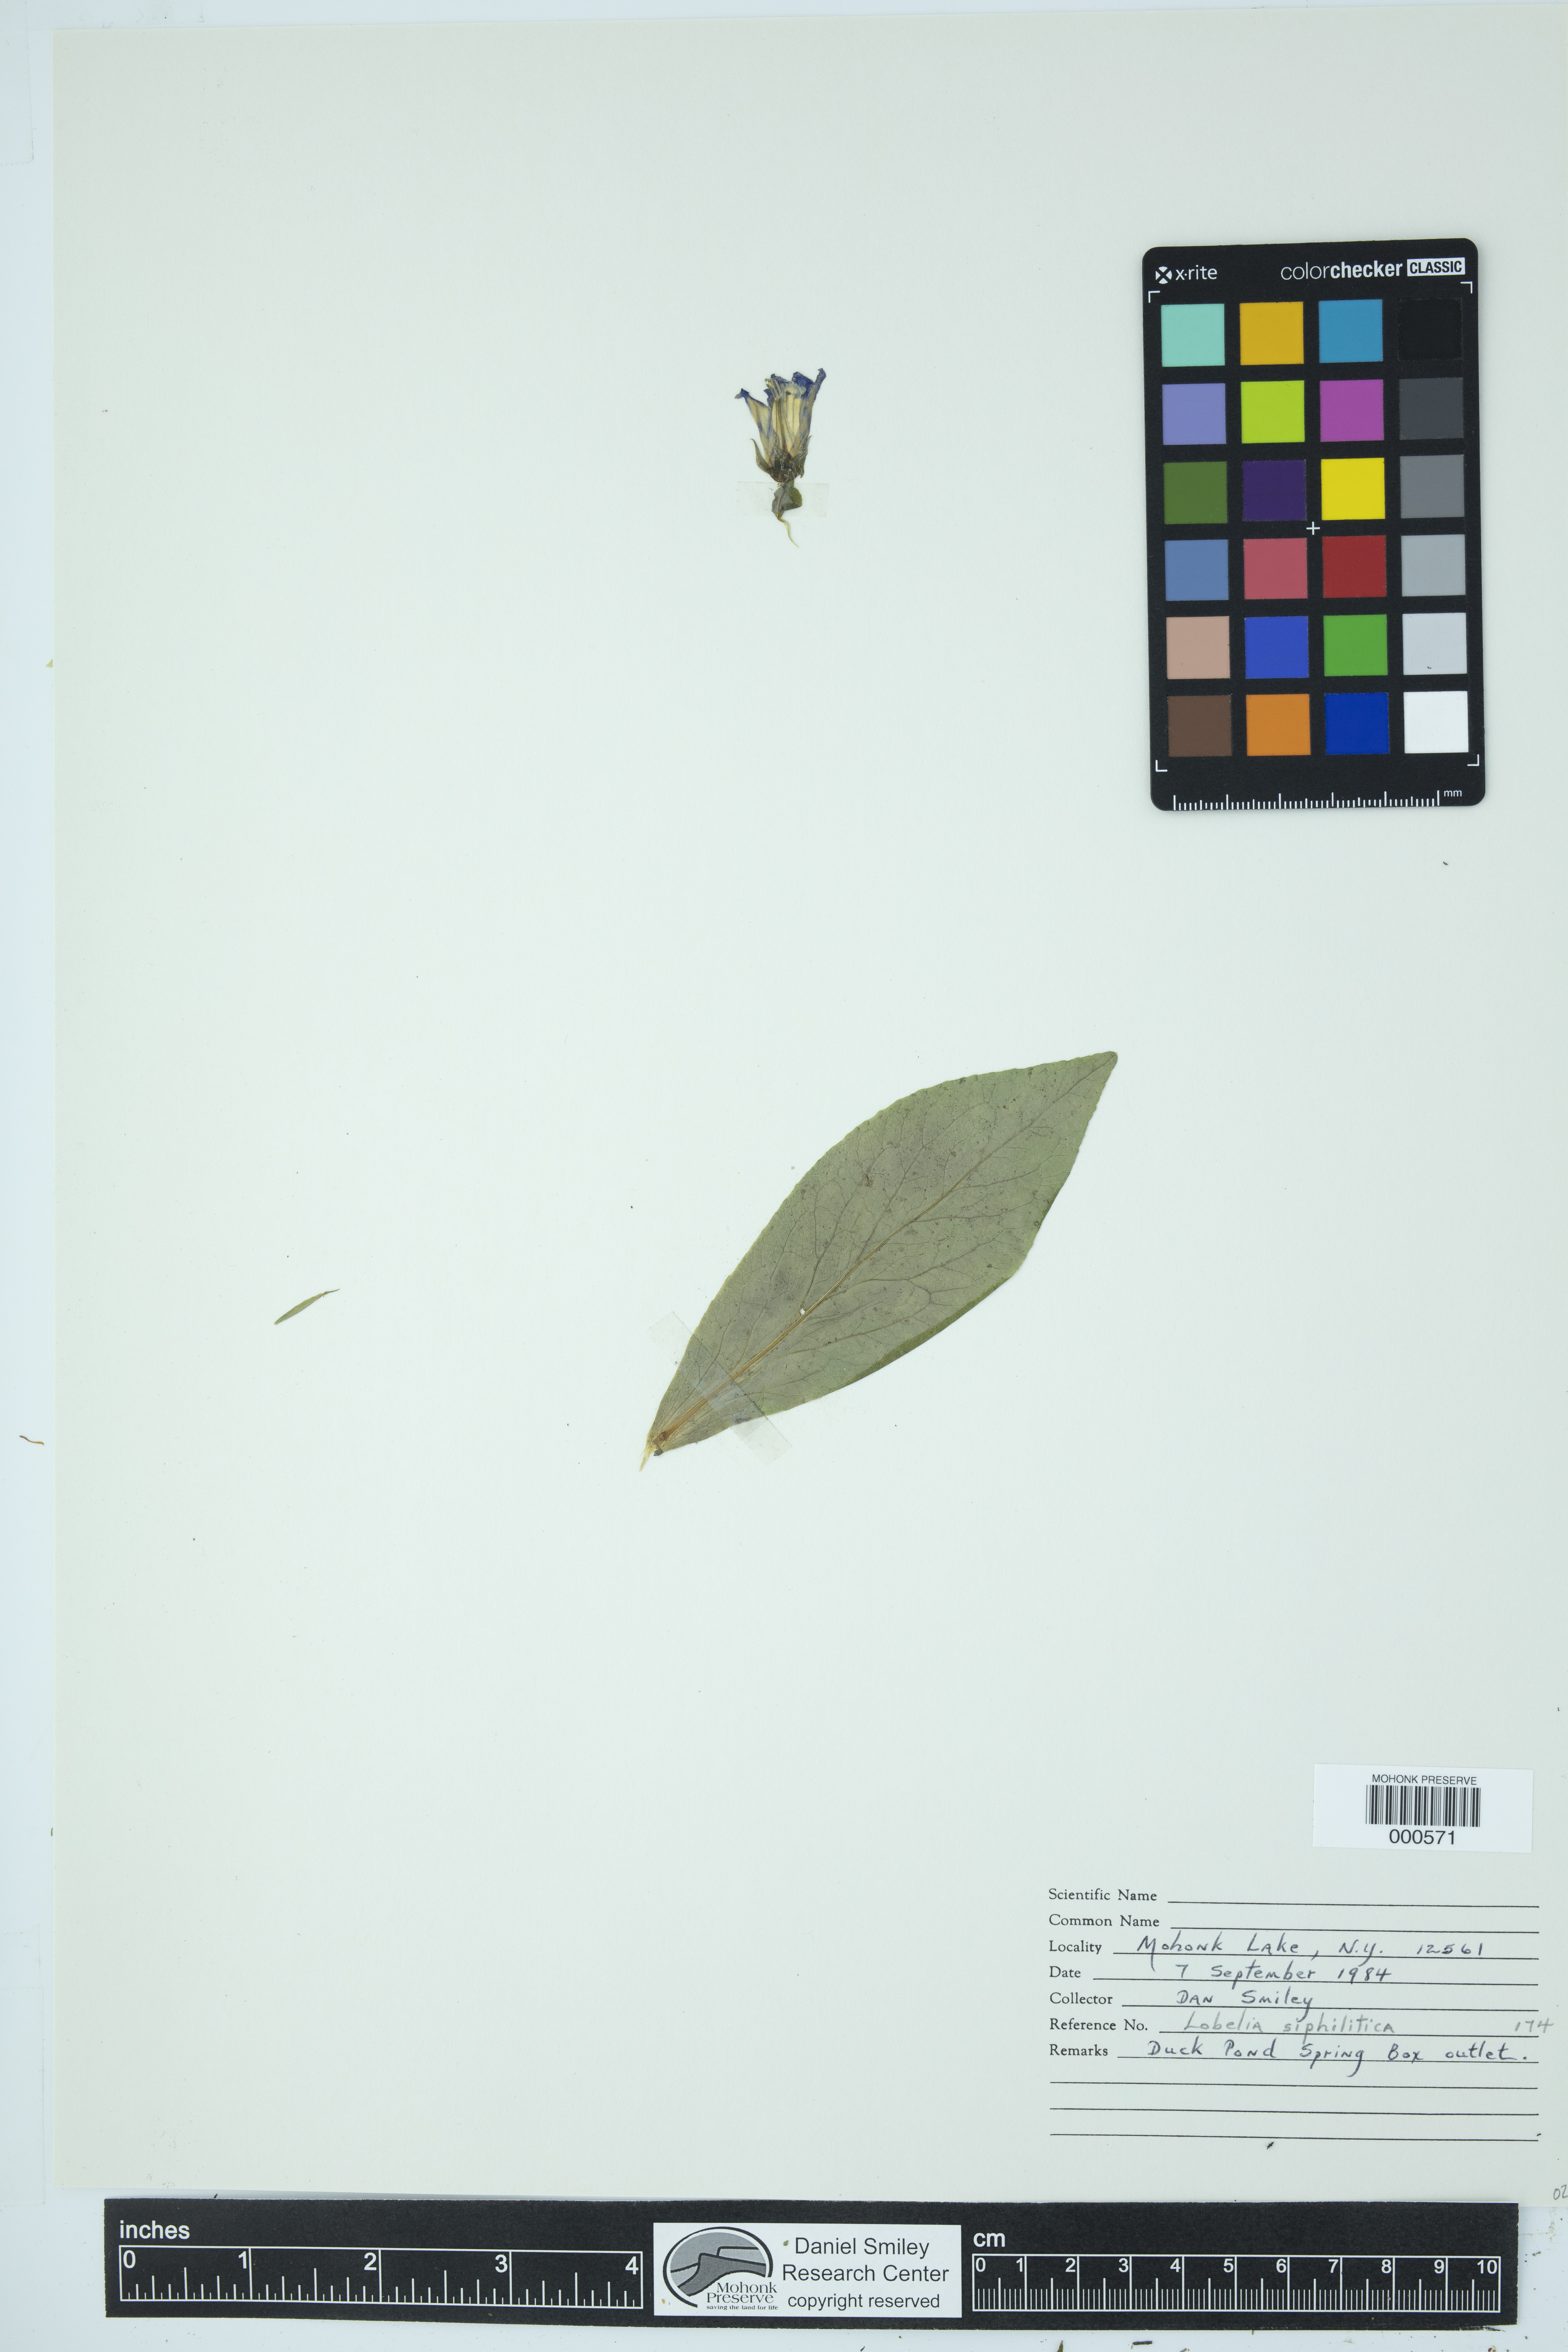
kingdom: Plantae
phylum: Tracheophyta
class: Magnoliopsida
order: Asterales
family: Campanulaceae
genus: Lobelia
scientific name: Lobelia siphilitica
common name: Great lobelia
